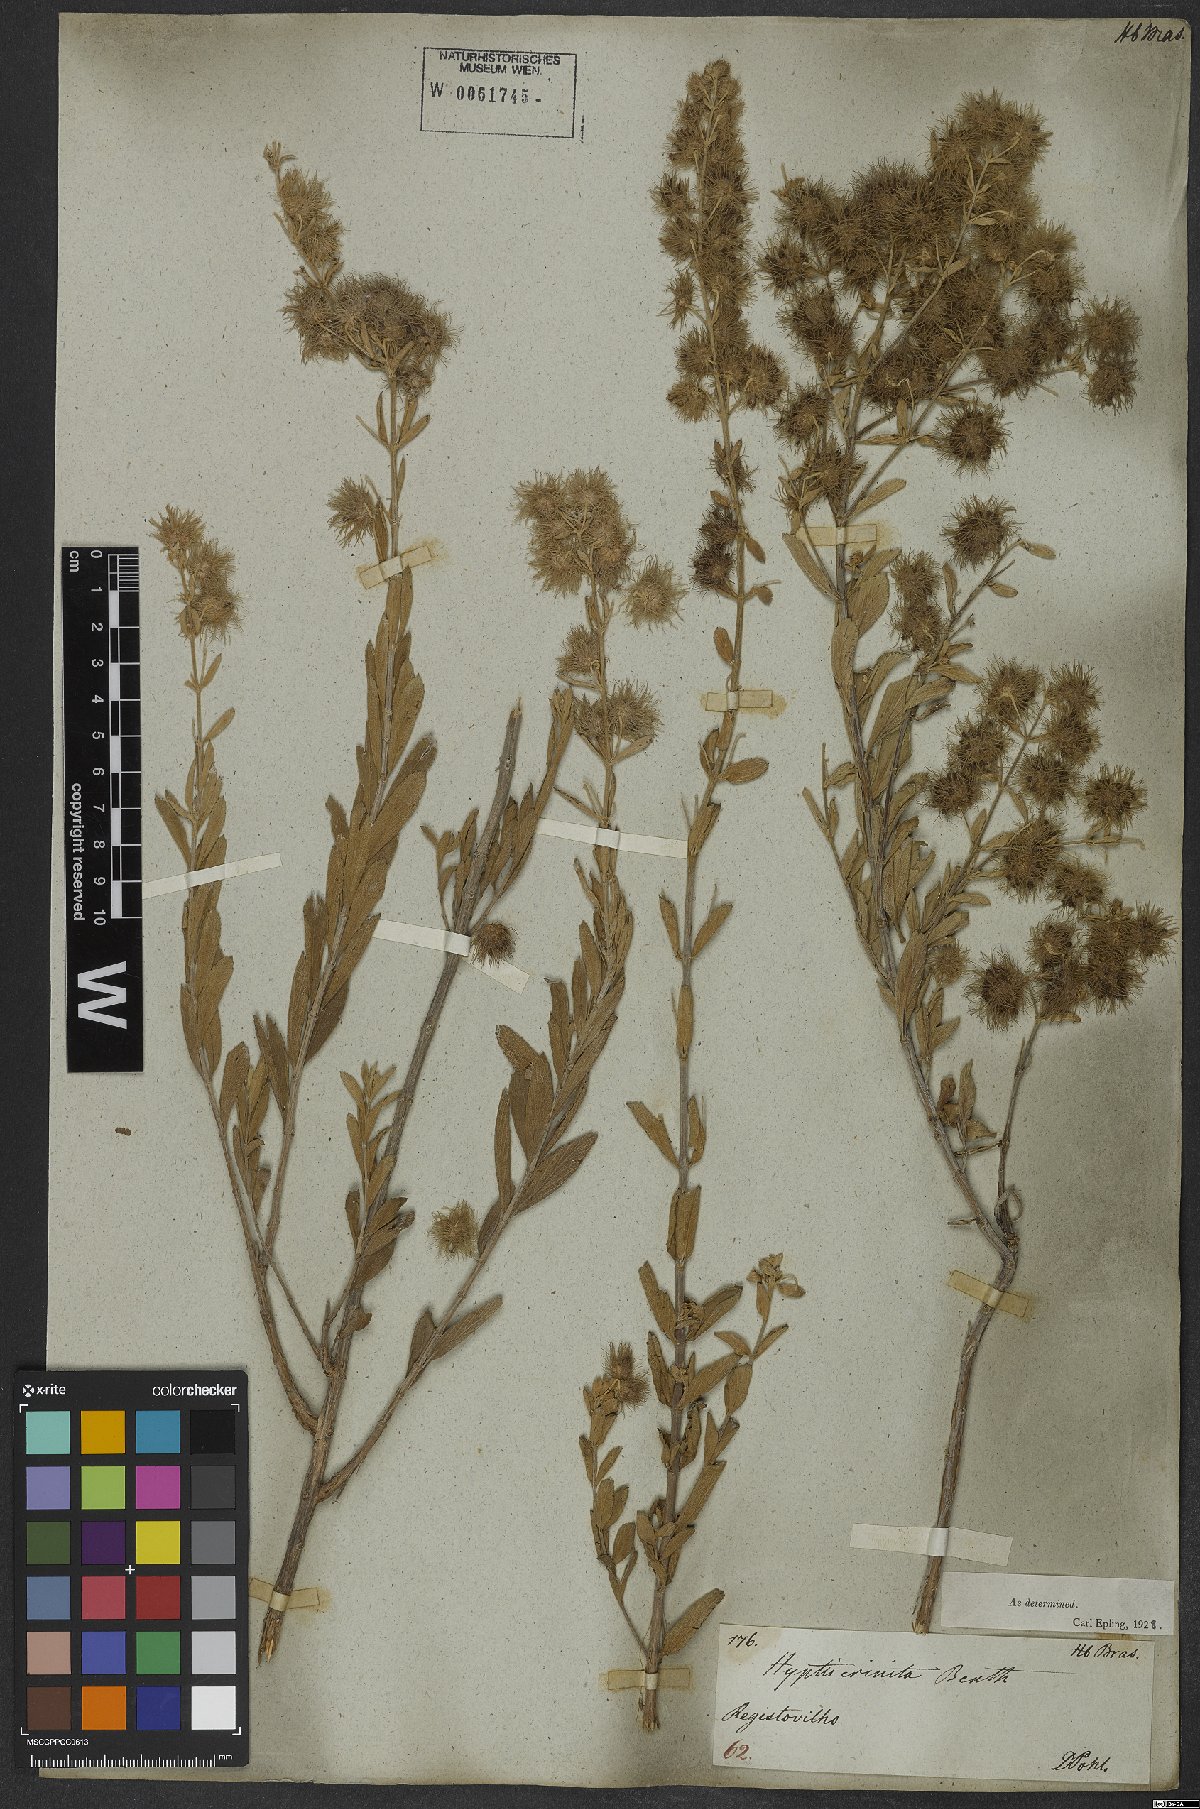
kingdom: Plantae
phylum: Tracheophyta
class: Magnoliopsida
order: Lamiales
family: Lamiaceae
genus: Medusantha
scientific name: Medusantha crinita
